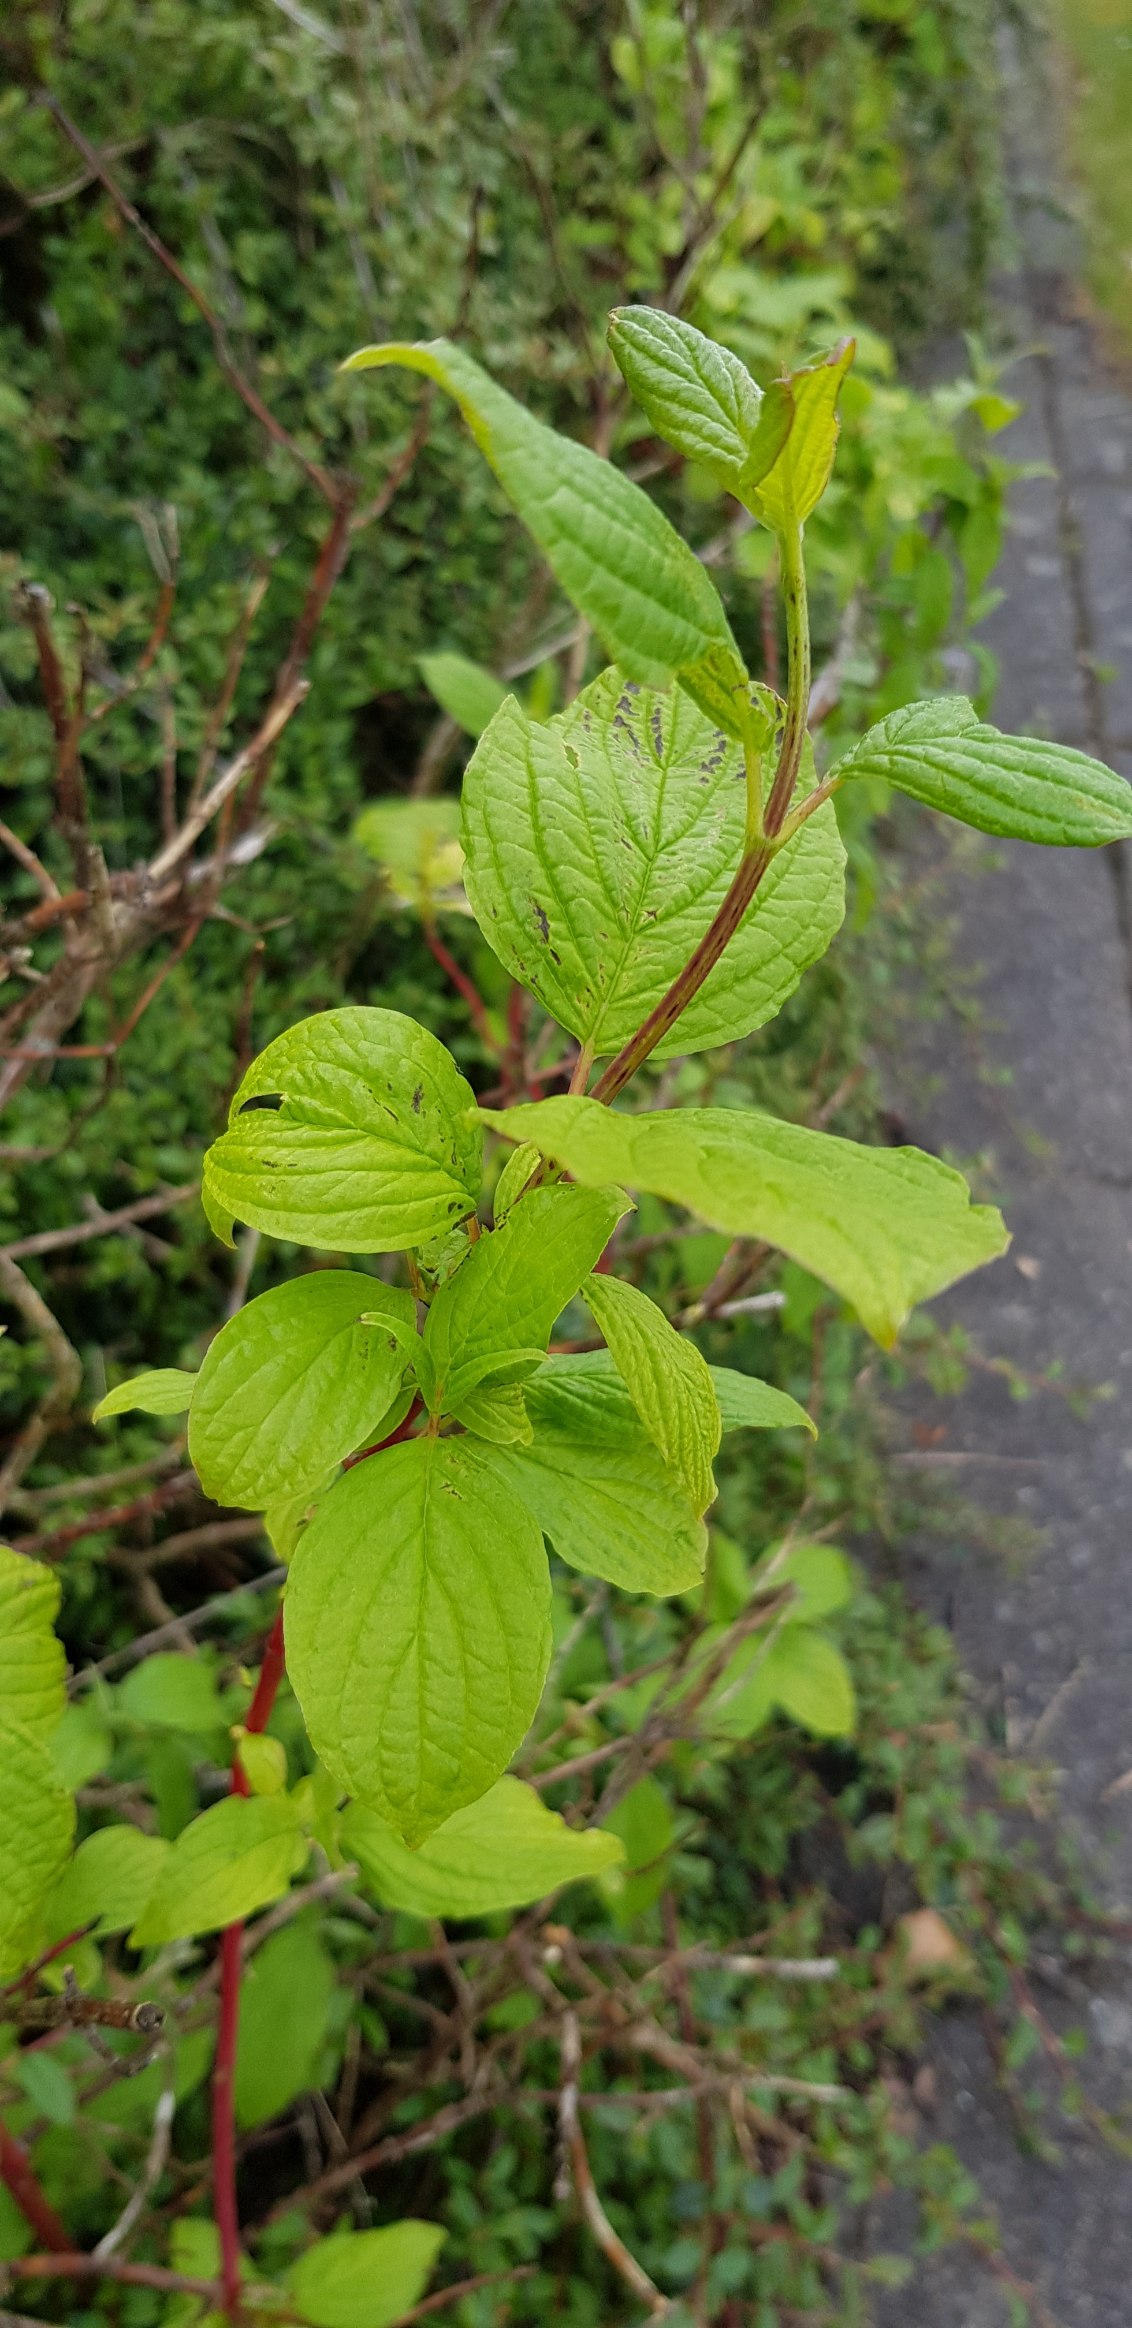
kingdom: Plantae
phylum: Tracheophyta
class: Magnoliopsida
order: Cornales
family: Cornaceae
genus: Cornus
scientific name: Cornus sanguinea
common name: Rød kornel
